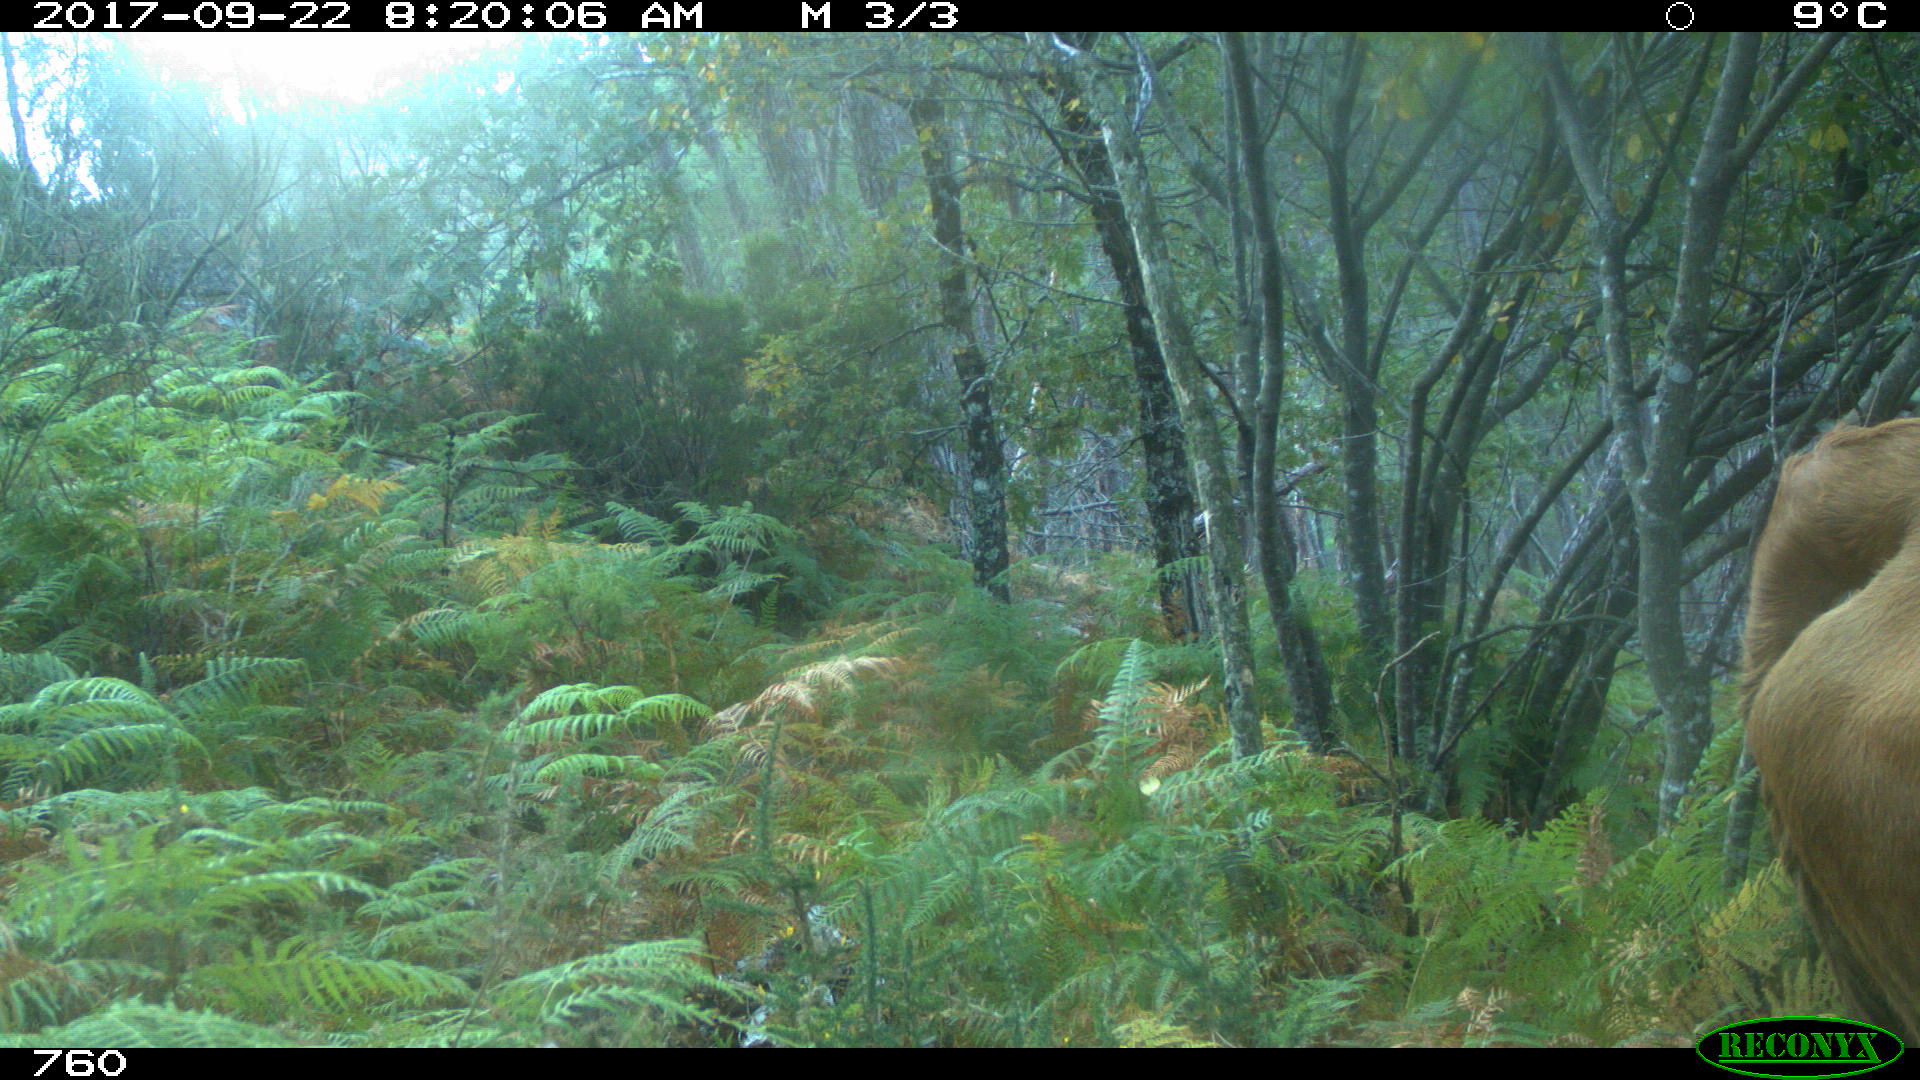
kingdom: Animalia
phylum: Chordata
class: Mammalia
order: Artiodactyla
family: Bovidae
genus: Bos
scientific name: Bos taurus
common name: Domesticated cattle
